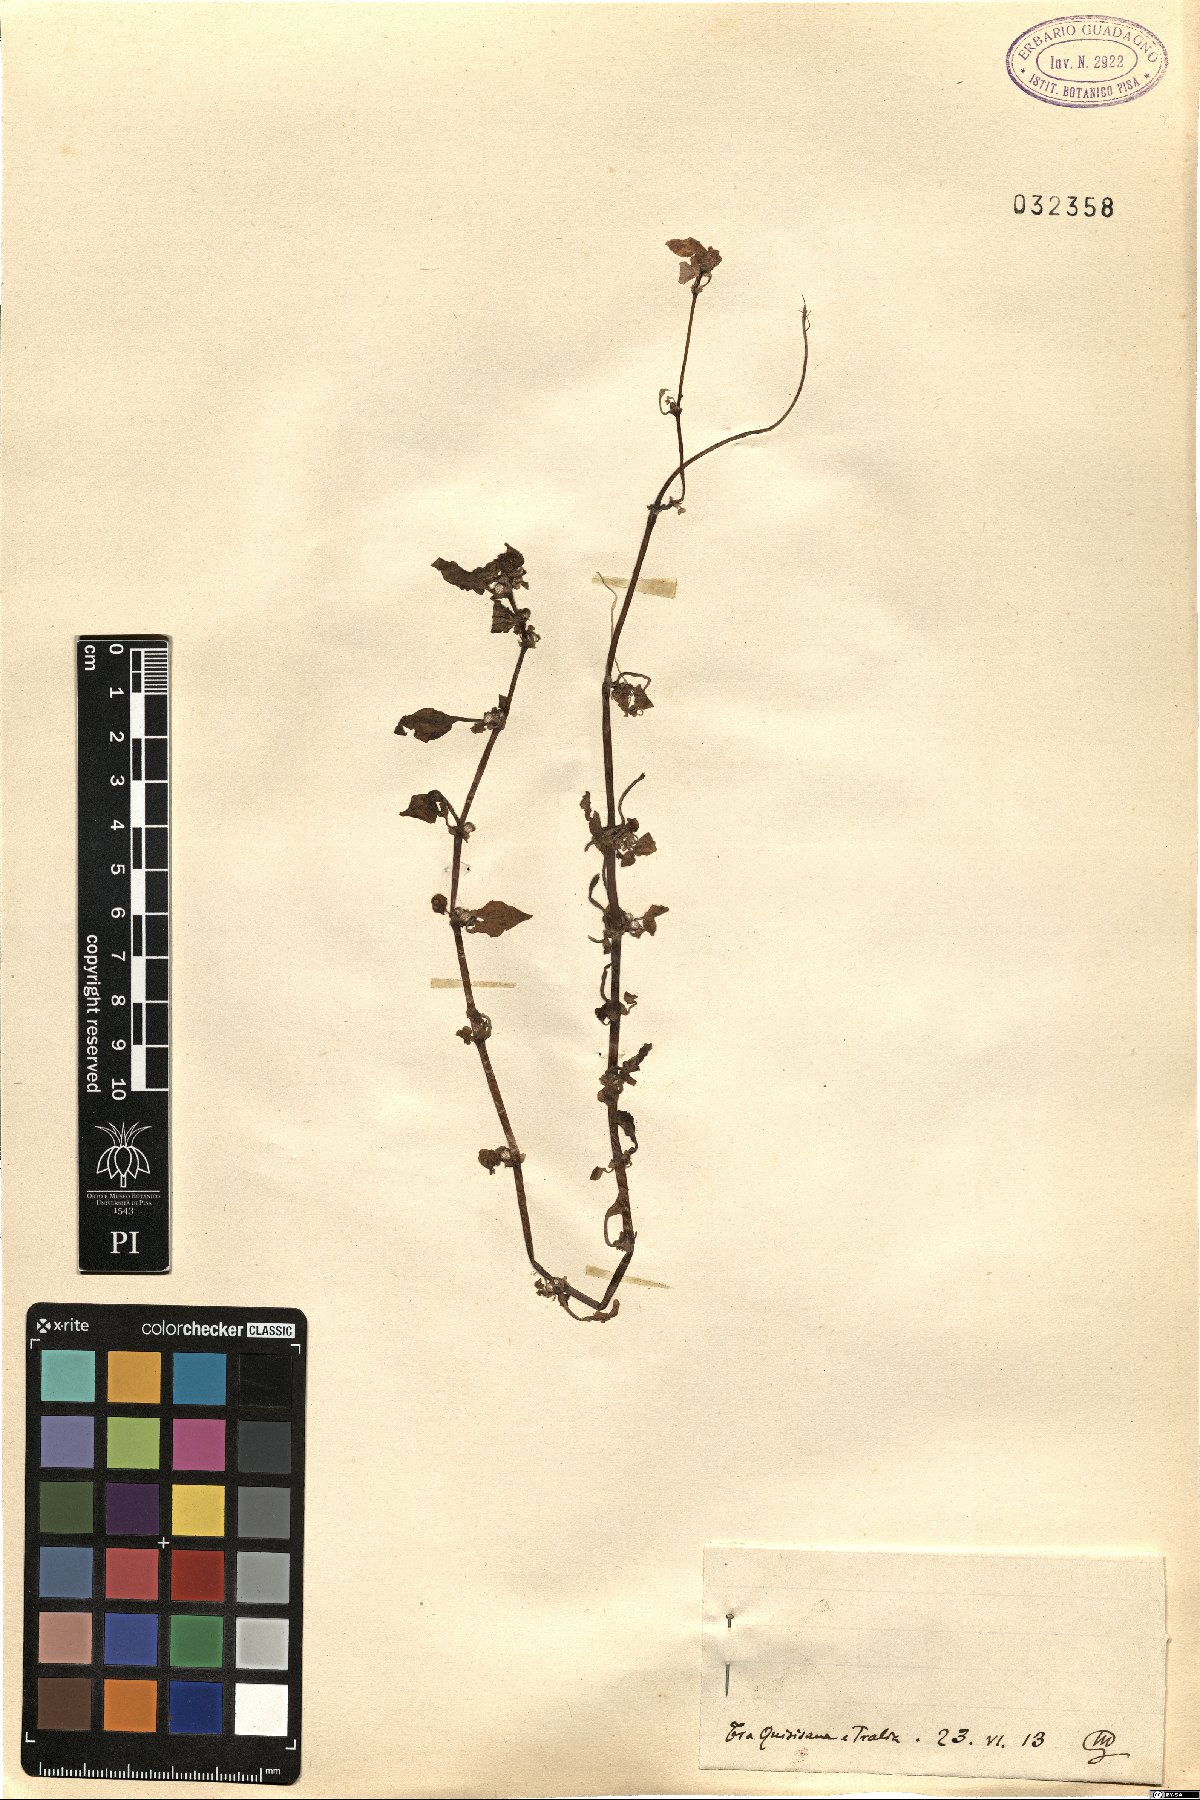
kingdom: Plantae
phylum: Tracheophyta
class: Magnoliopsida
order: Gentianales
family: Rubiaceae
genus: Theligonum
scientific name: Theligonum
